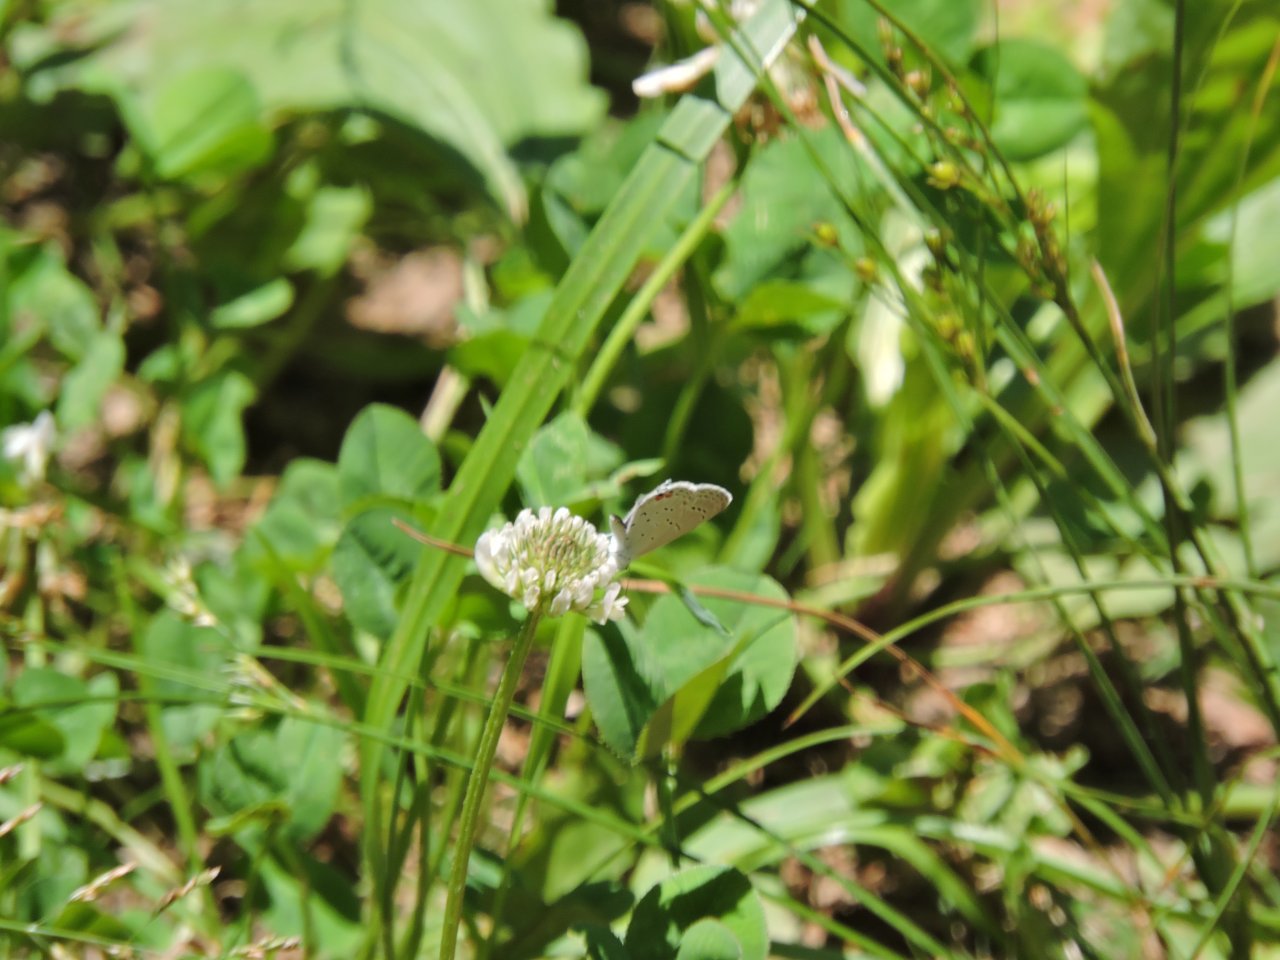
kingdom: Animalia
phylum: Arthropoda
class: Insecta
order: Lepidoptera
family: Lycaenidae
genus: Elkalyce
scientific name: Elkalyce comyntas
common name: Eastern Tailed-Blue
